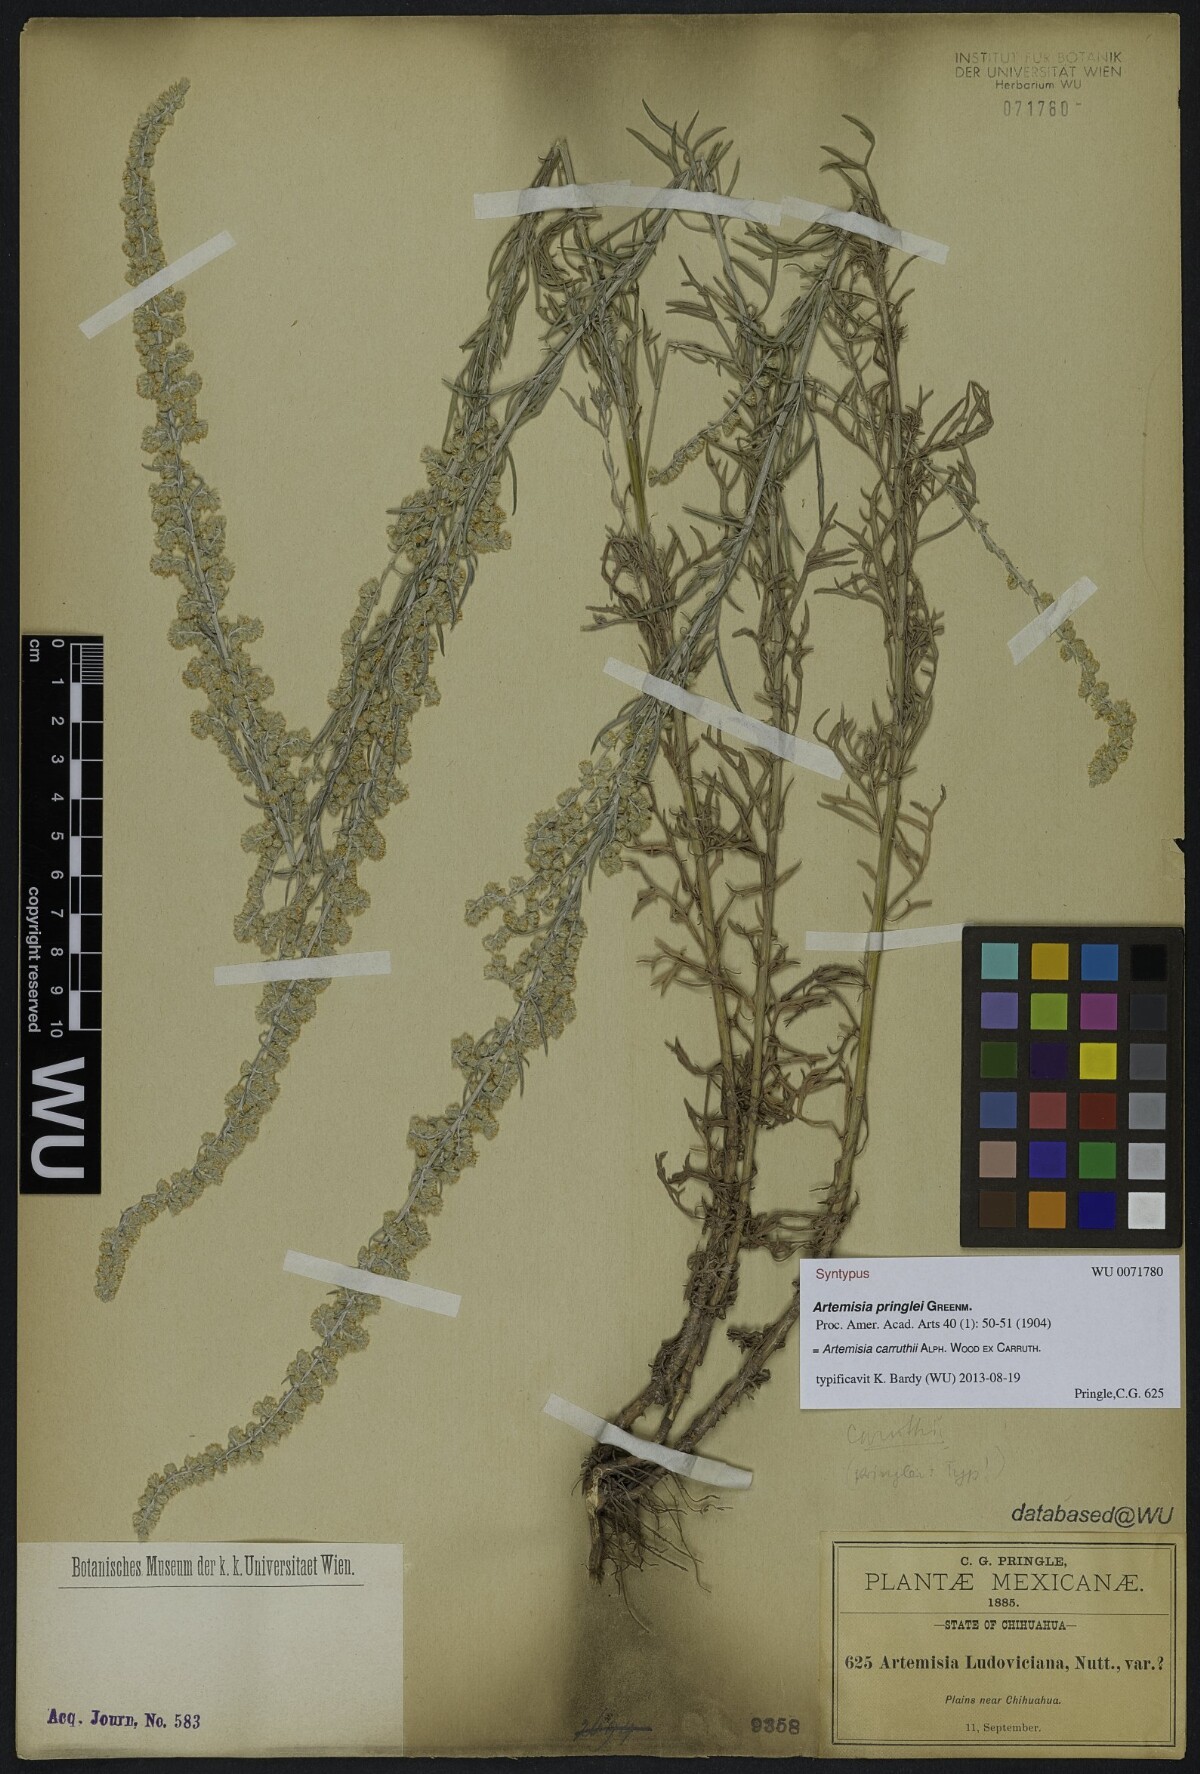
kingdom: Plantae
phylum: Tracheophyta
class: Magnoliopsida
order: Asterales
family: Asteraceae
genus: Artemisia
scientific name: Artemisia pringlei
